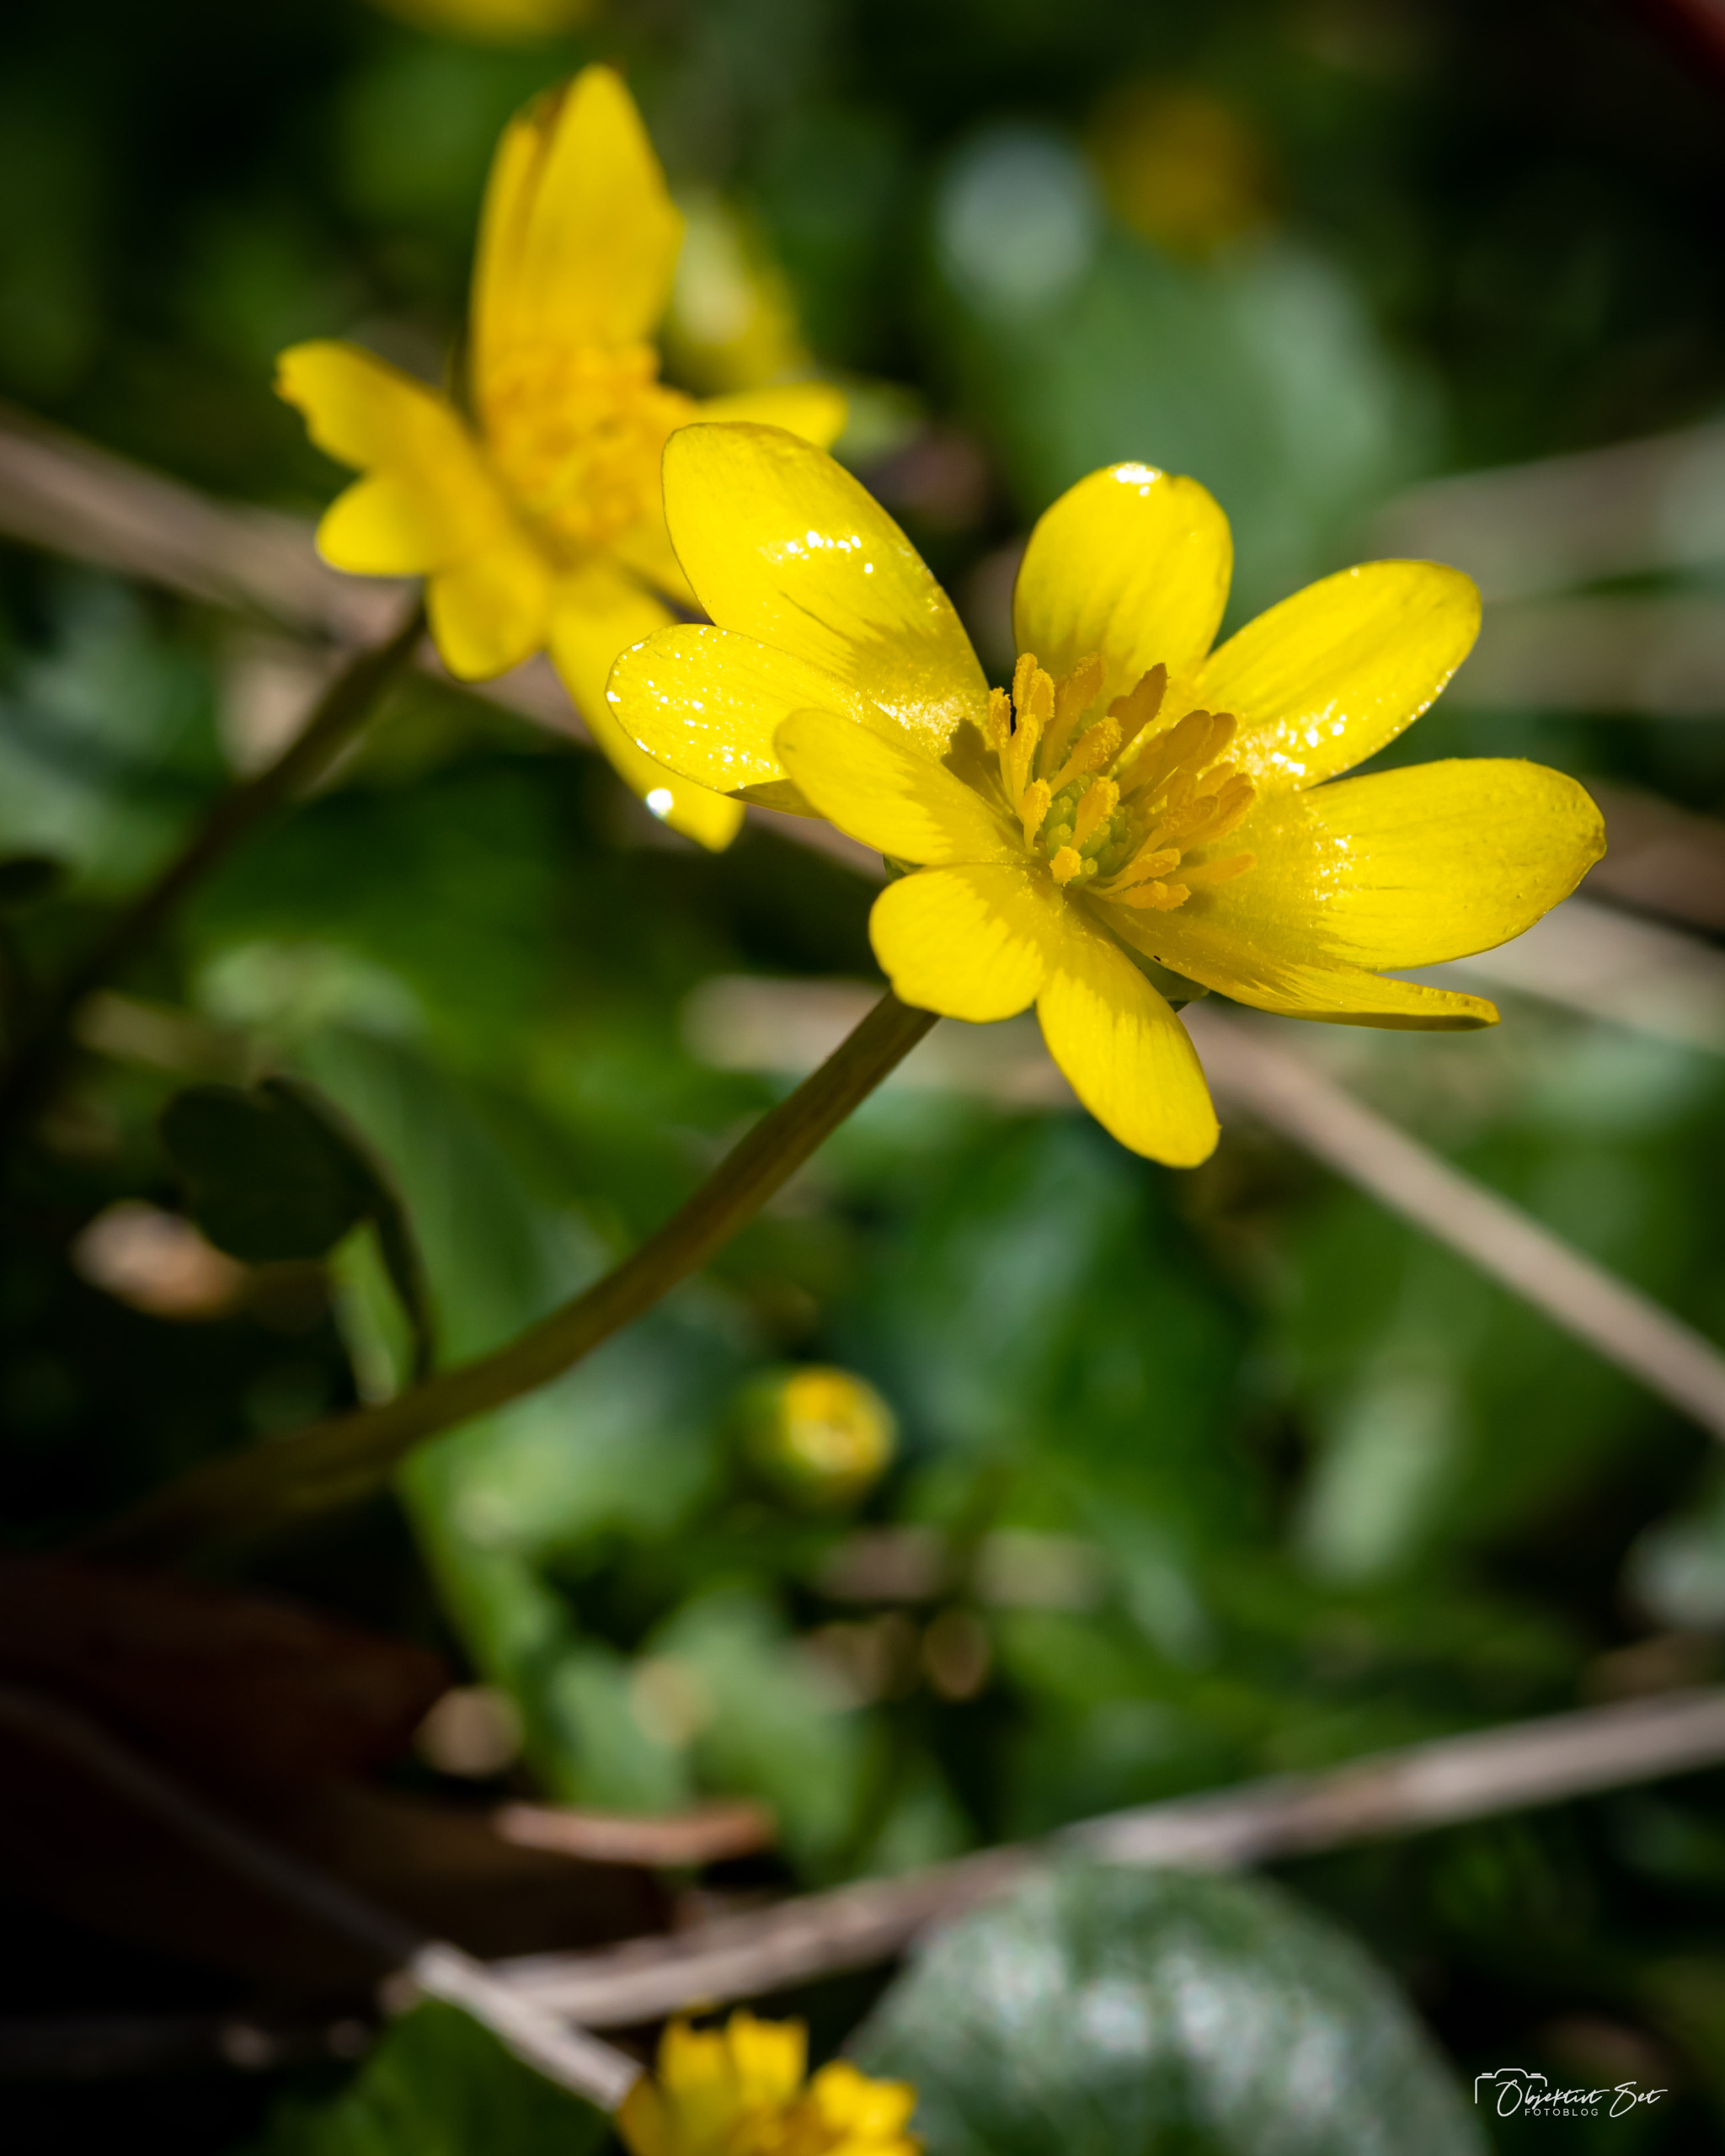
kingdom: Plantae
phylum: Tracheophyta
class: Magnoliopsida
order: Ranunculales
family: Ranunculaceae
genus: Ficaria
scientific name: Ficaria verna
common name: Vorterod
